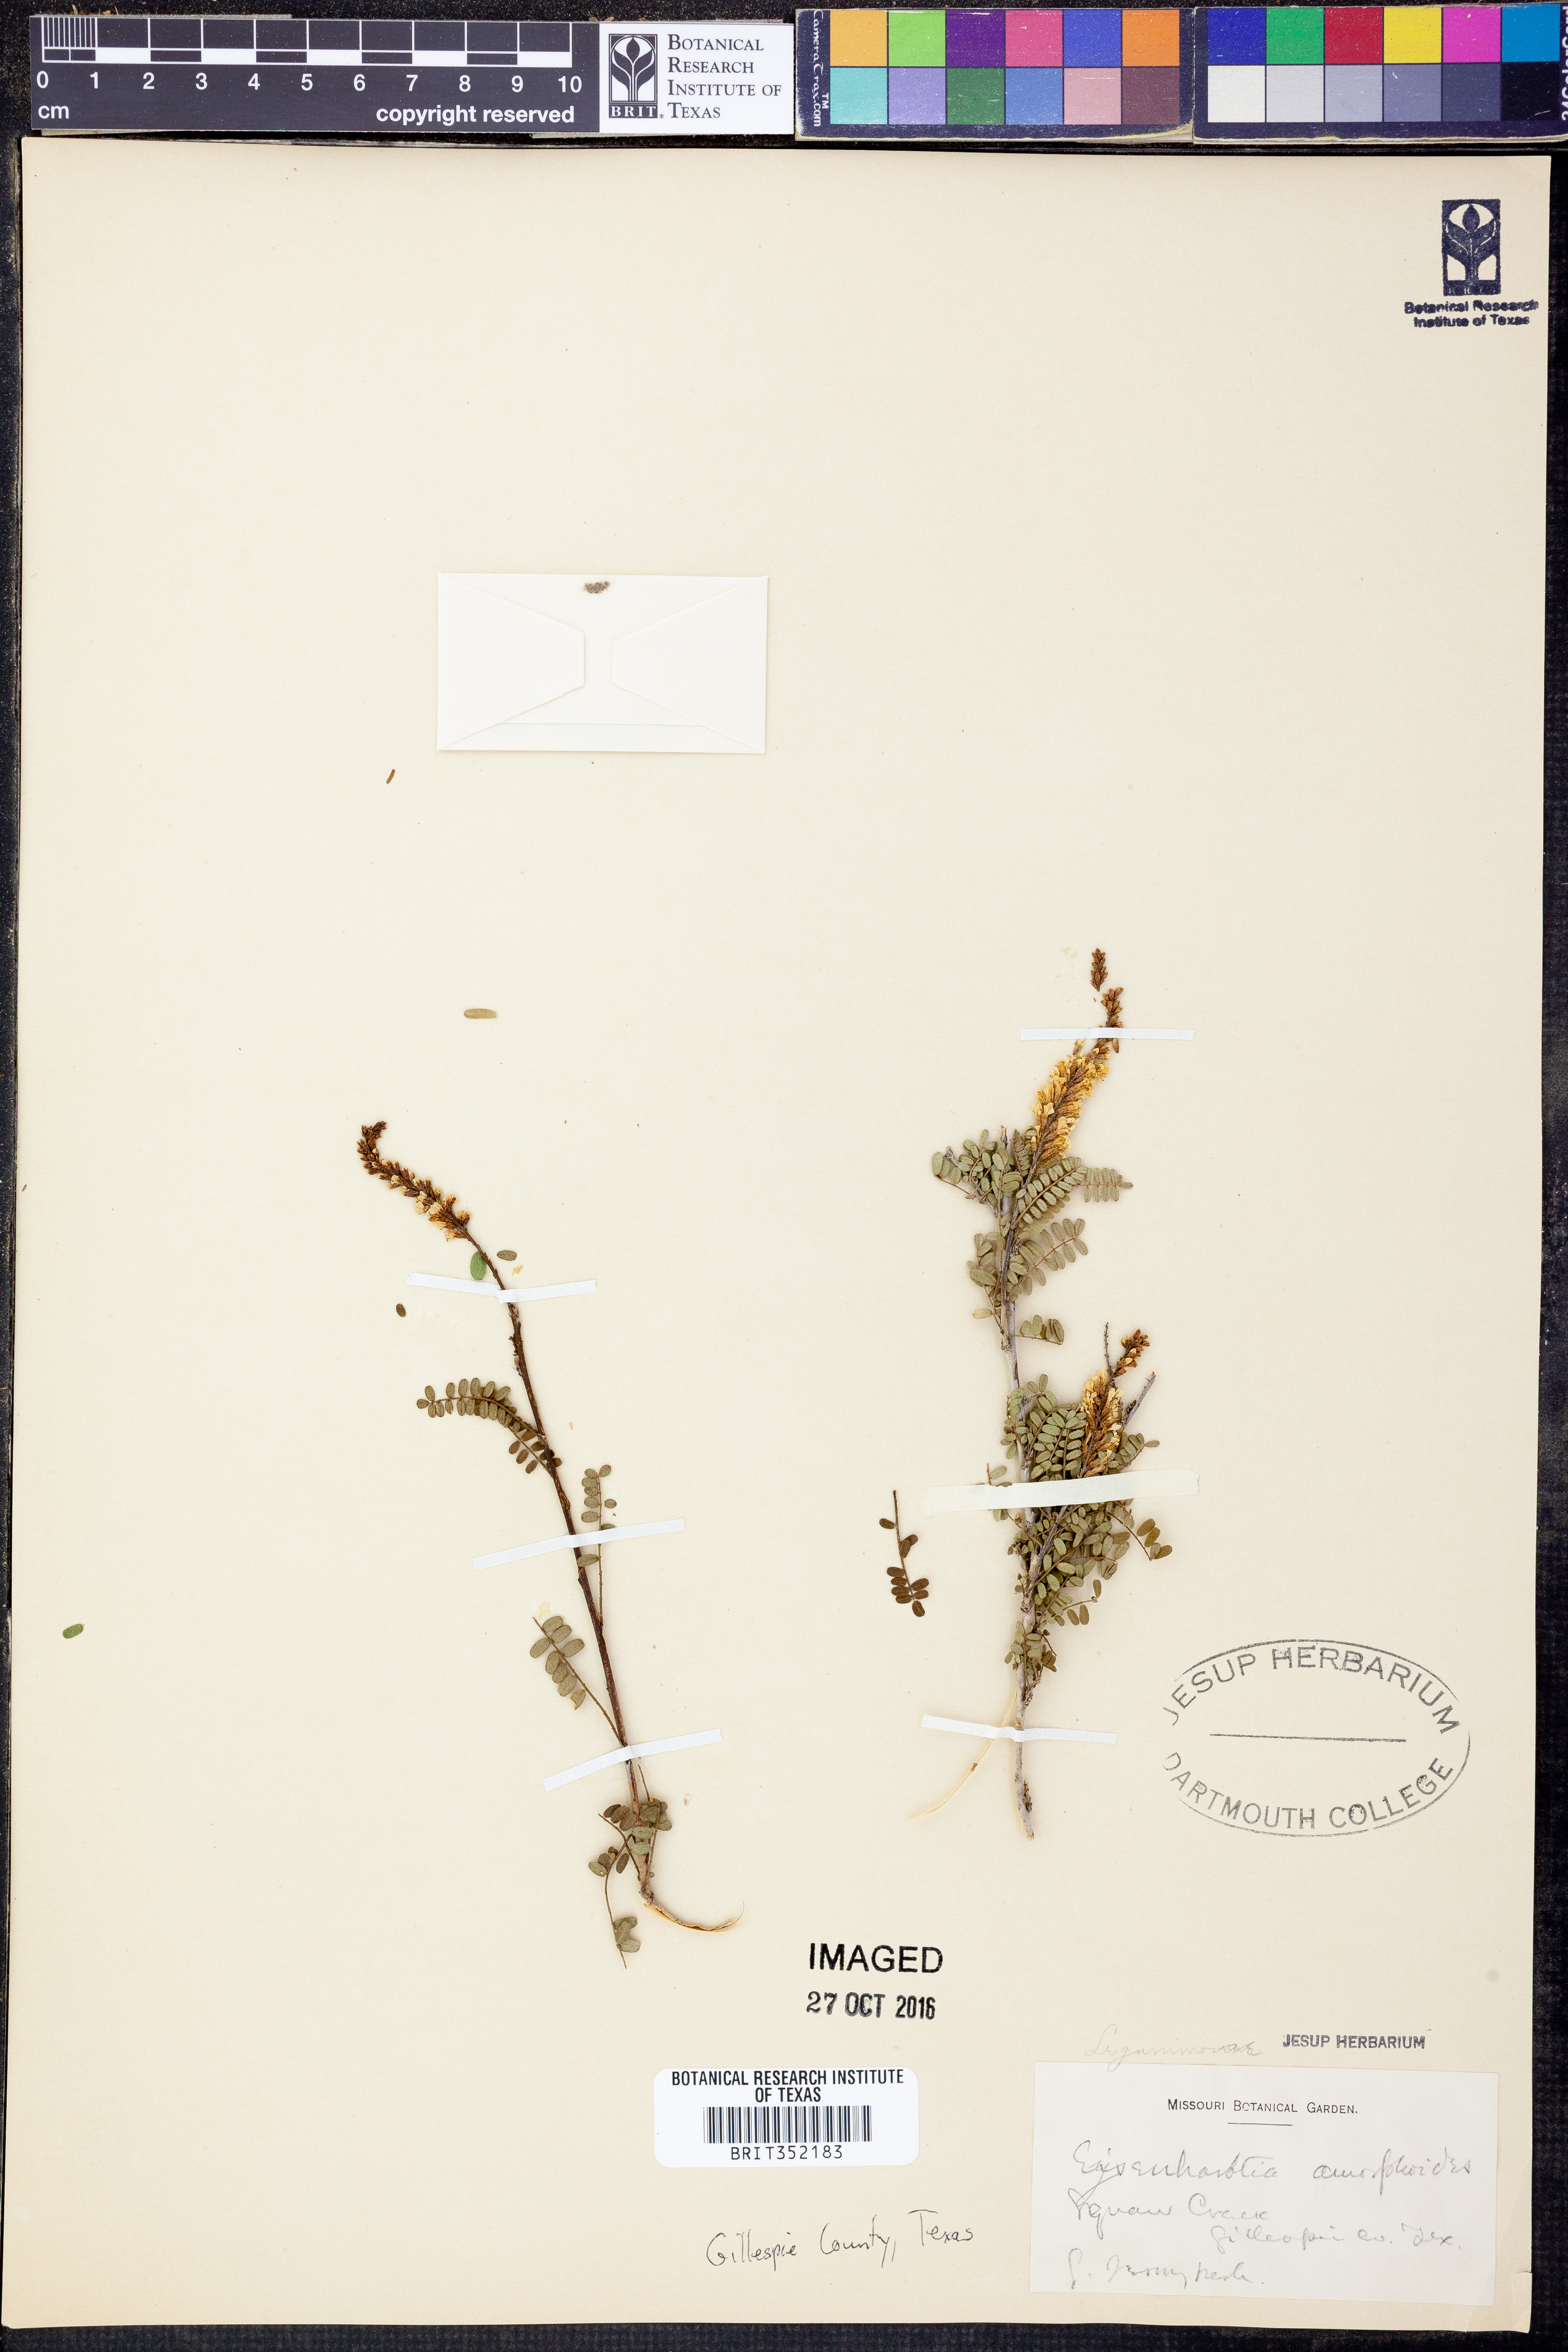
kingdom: Plantae
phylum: Tracheophyta
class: Magnoliopsida
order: Fabales
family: Fabaceae
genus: Eysenhardtia
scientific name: Eysenhardtia polystachya
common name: Kidneywood
